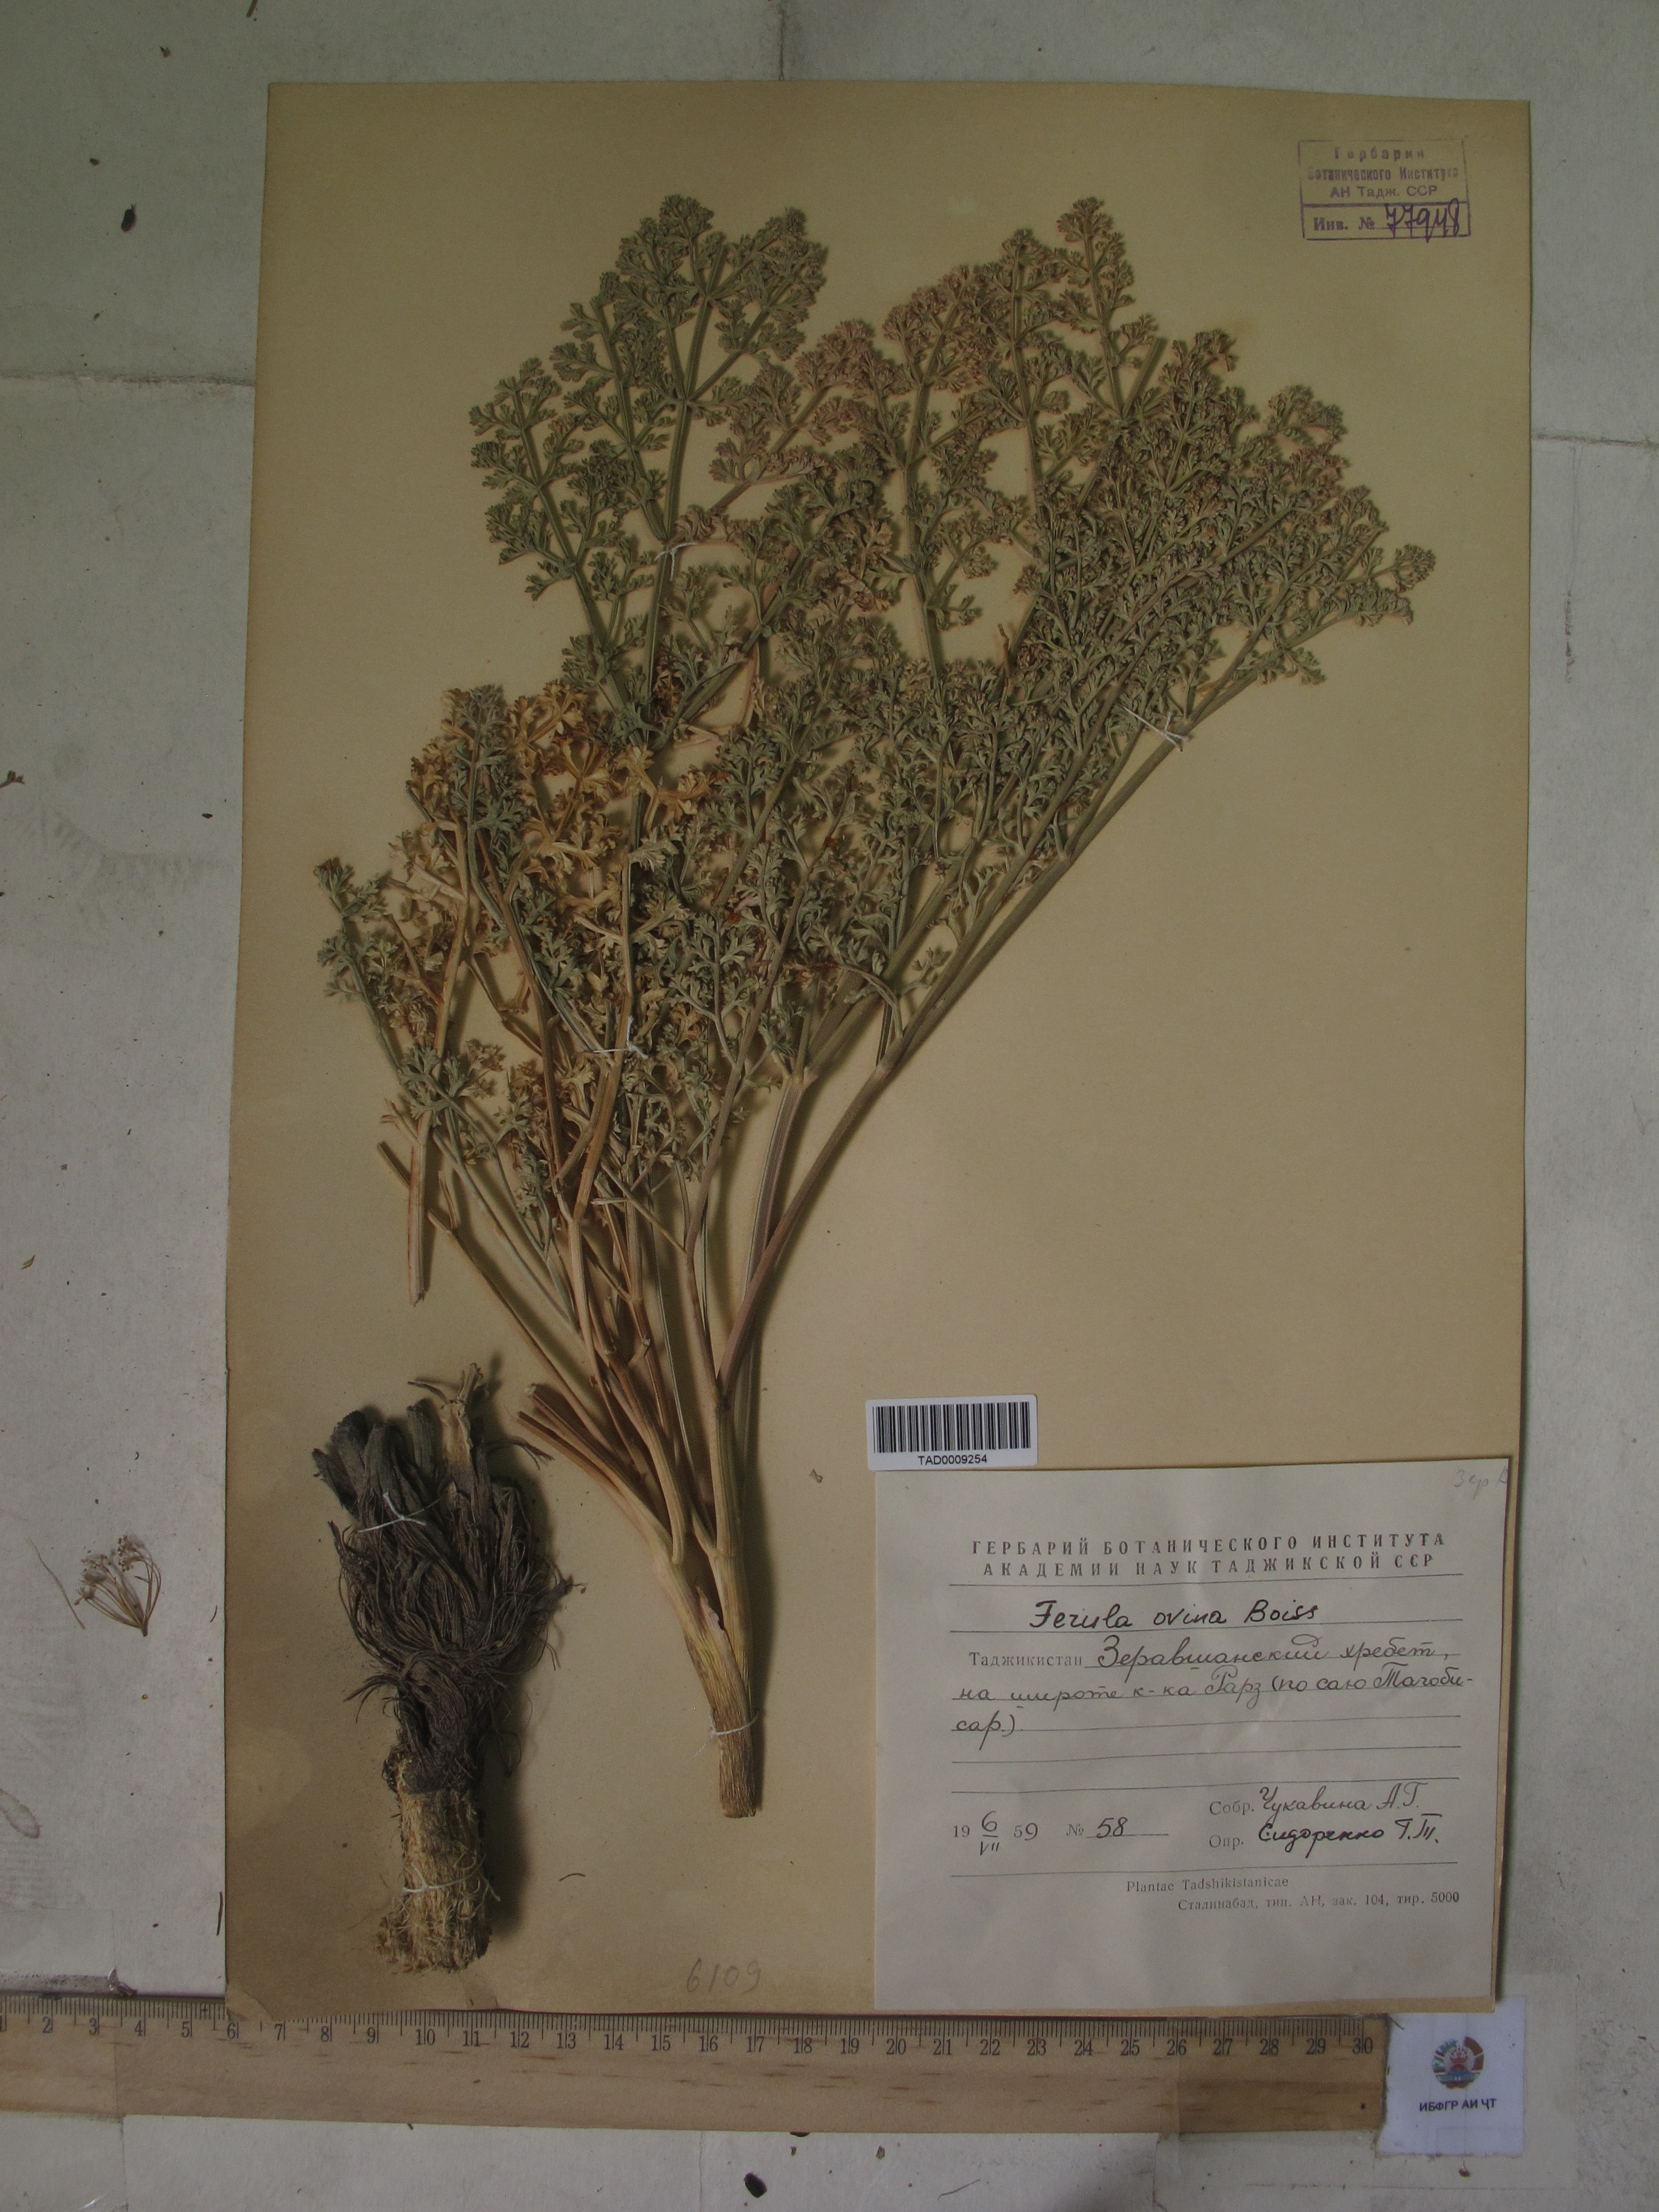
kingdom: Plantae
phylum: Tracheophyta
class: Magnoliopsida
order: Apiales
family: Apiaceae
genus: Ferula
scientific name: Ferula ovina
